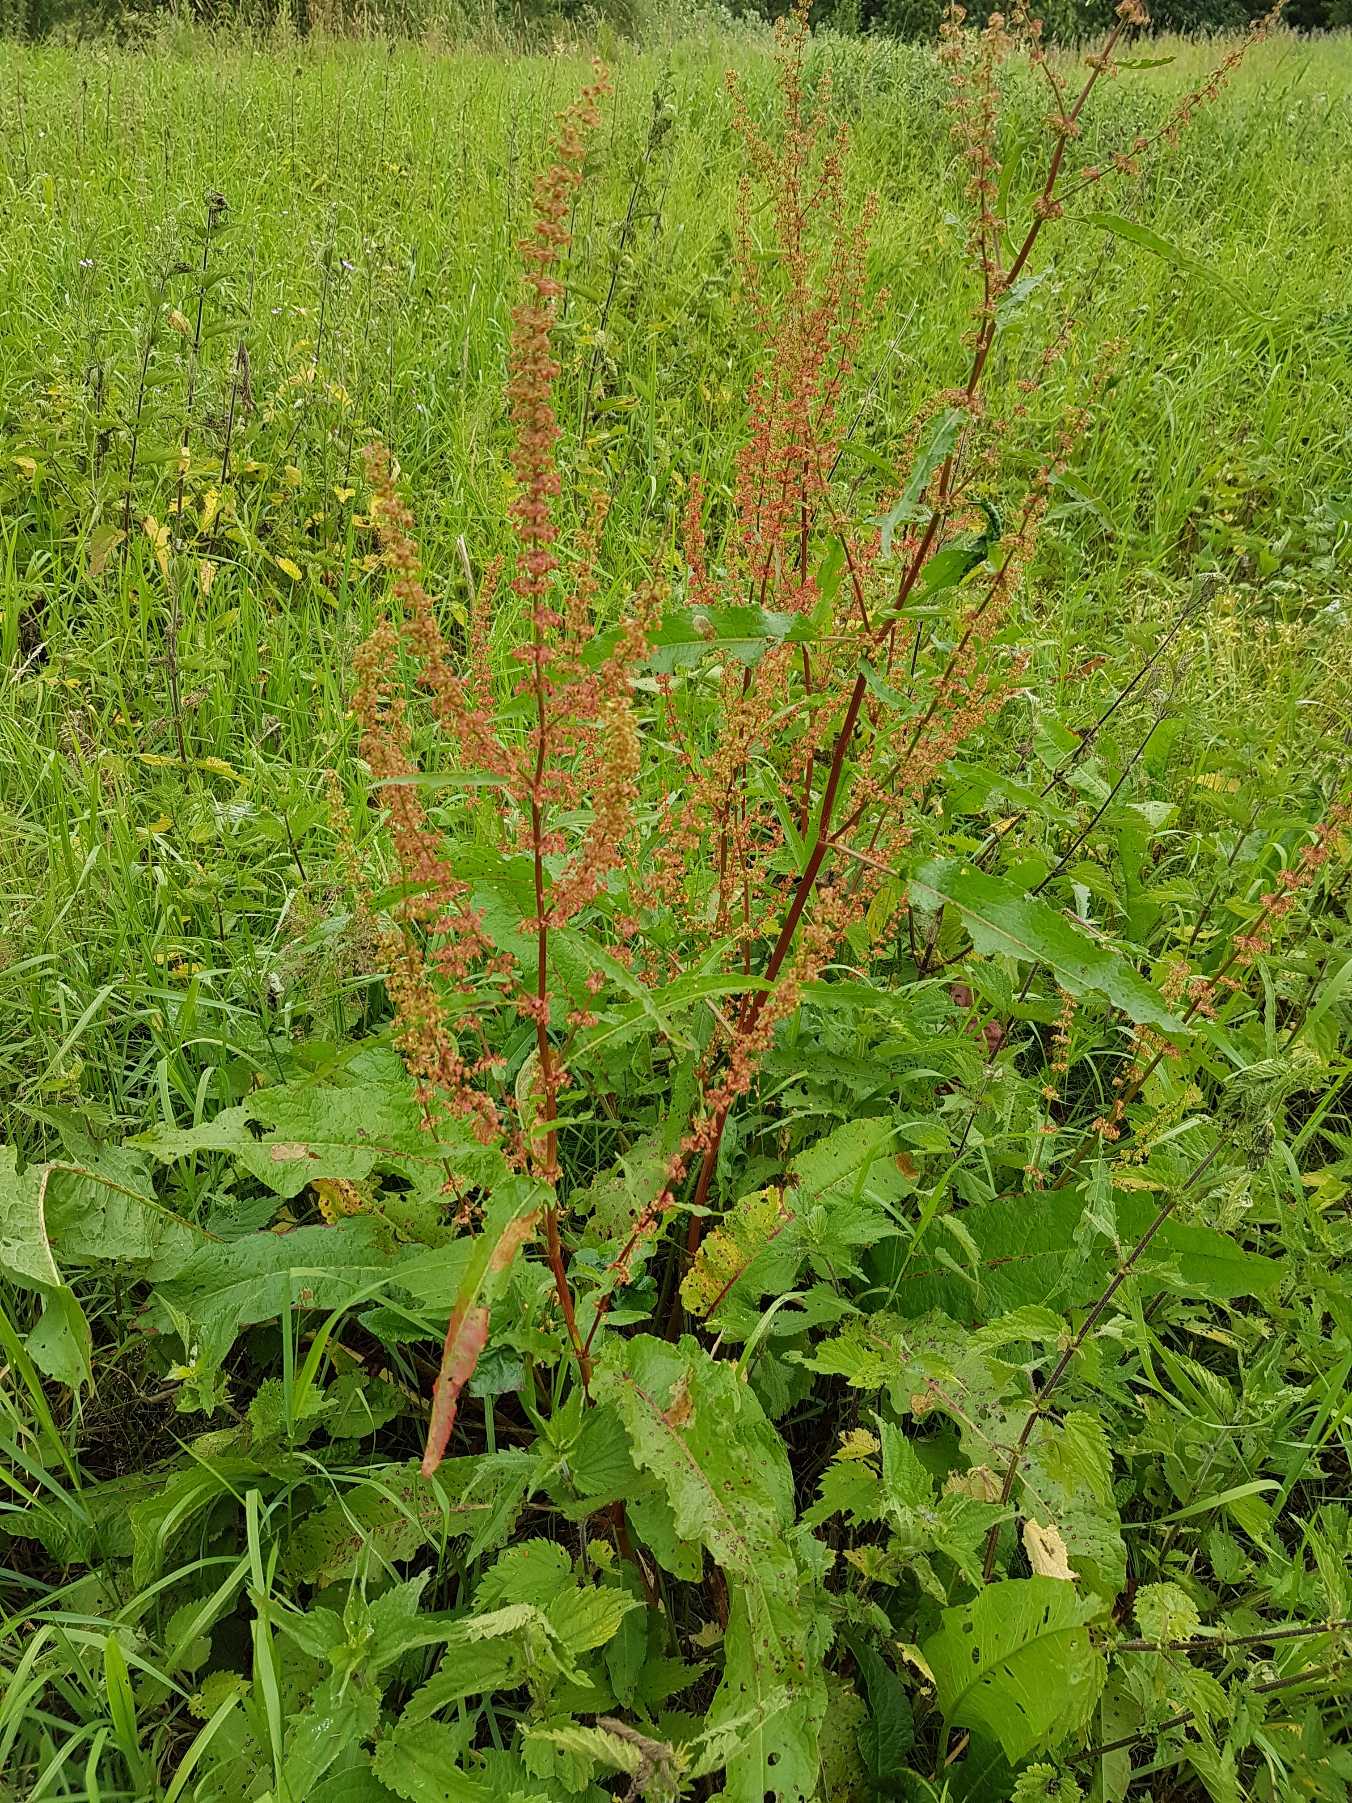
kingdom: Plantae
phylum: Tracheophyta
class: Magnoliopsida
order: Caryophyllales
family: Polygonaceae
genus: Rumex
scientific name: Rumex
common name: Skræppeslægten
